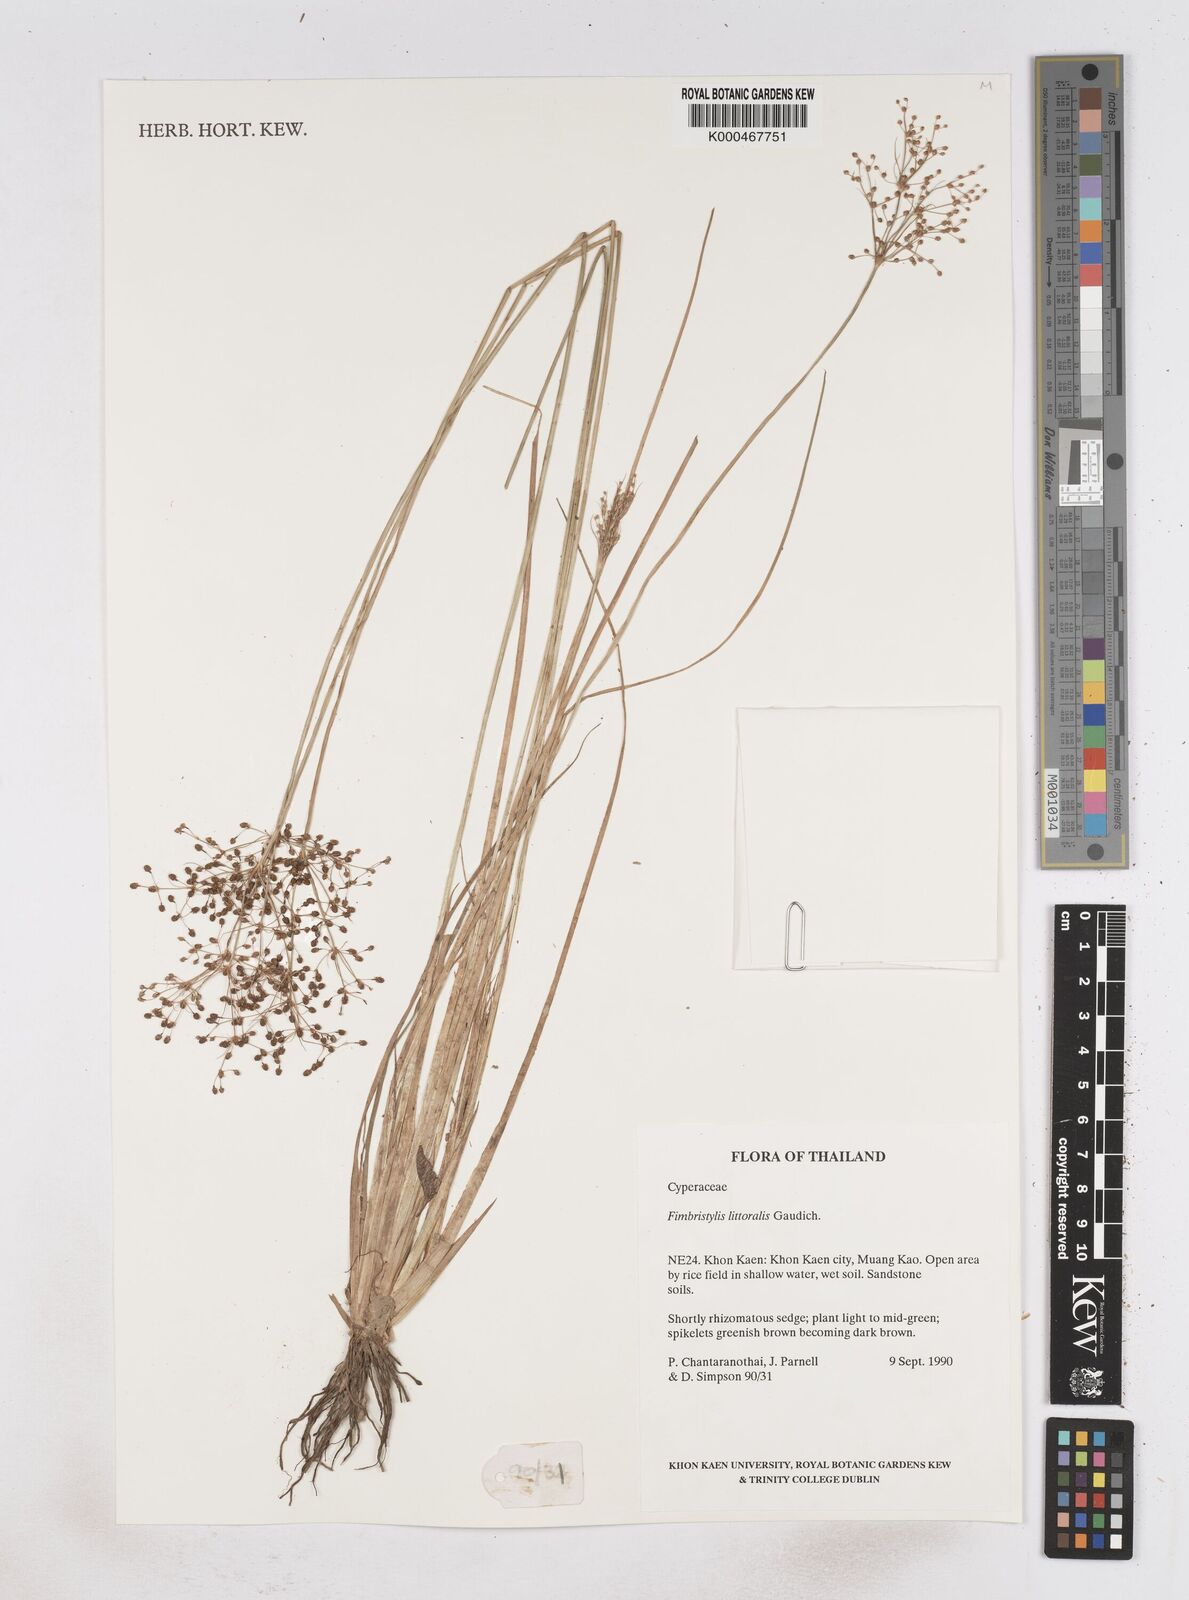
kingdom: Plantae
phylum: Tracheophyta
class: Liliopsida
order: Poales
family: Cyperaceae
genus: Fimbristylis
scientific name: Fimbristylis quinquangularis
